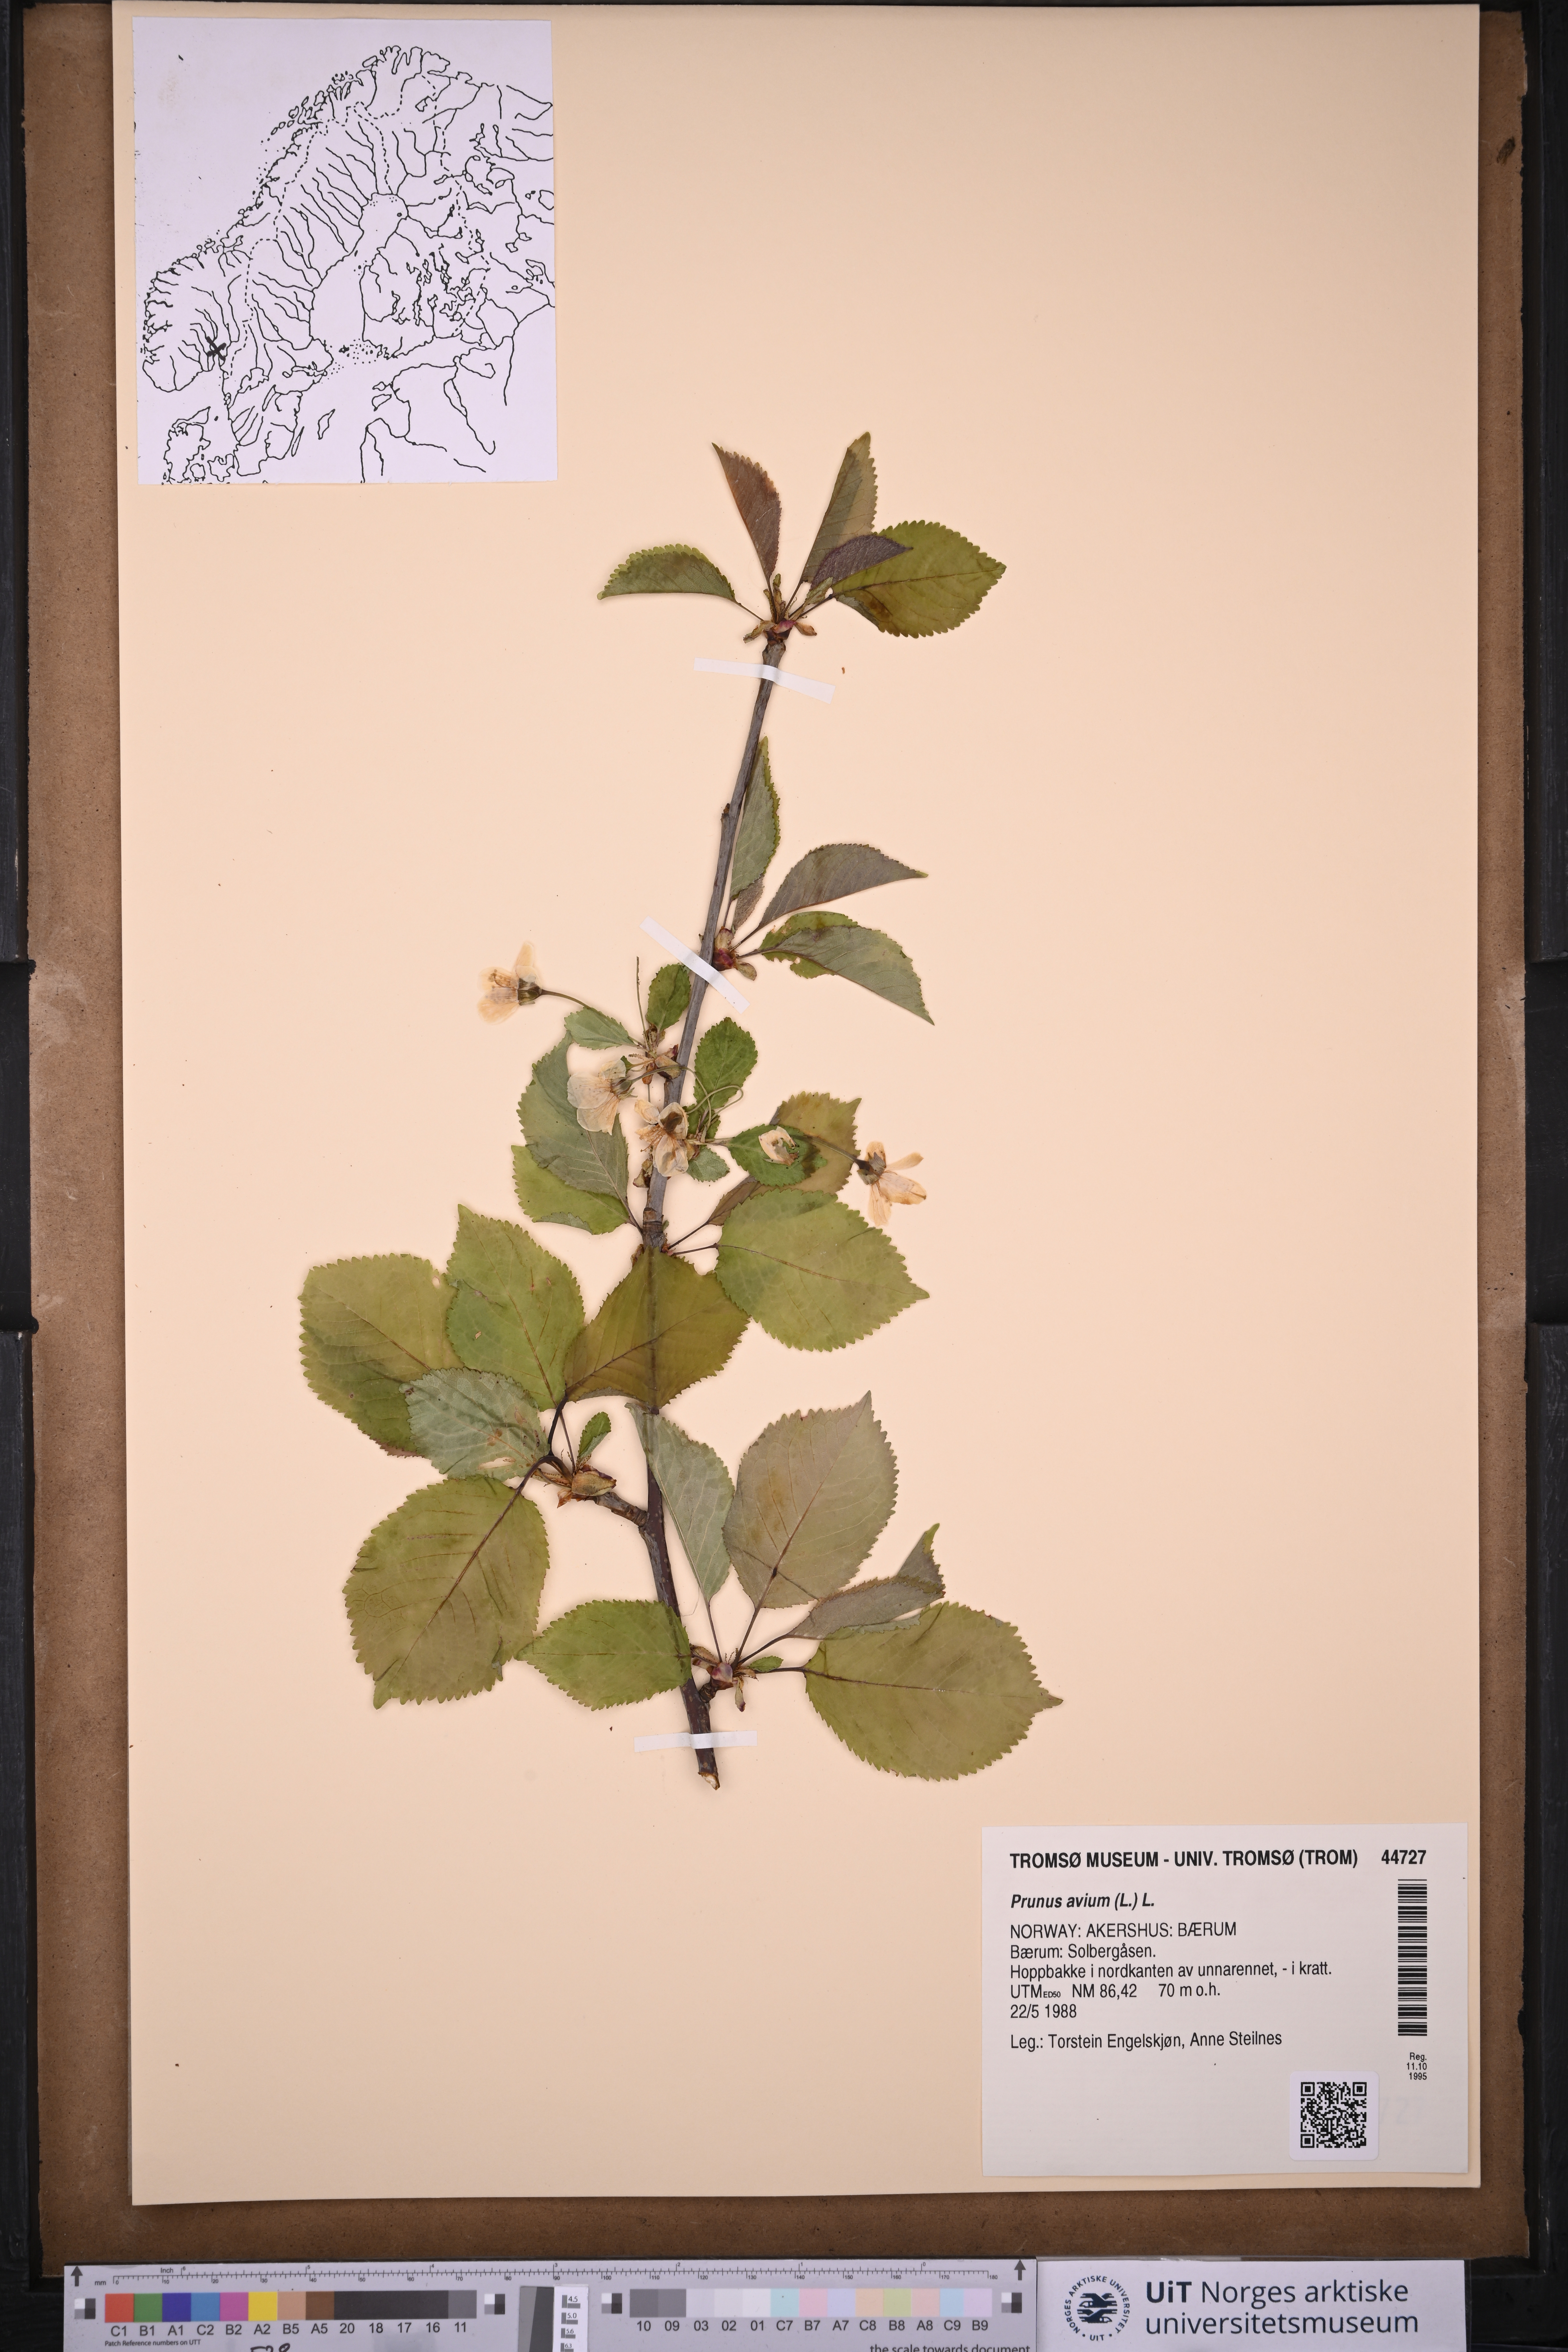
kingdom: Plantae
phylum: Tracheophyta
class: Magnoliopsida
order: Rosales
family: Rosaceae
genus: Prunus
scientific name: Prunus avium
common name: Sweet cherry
